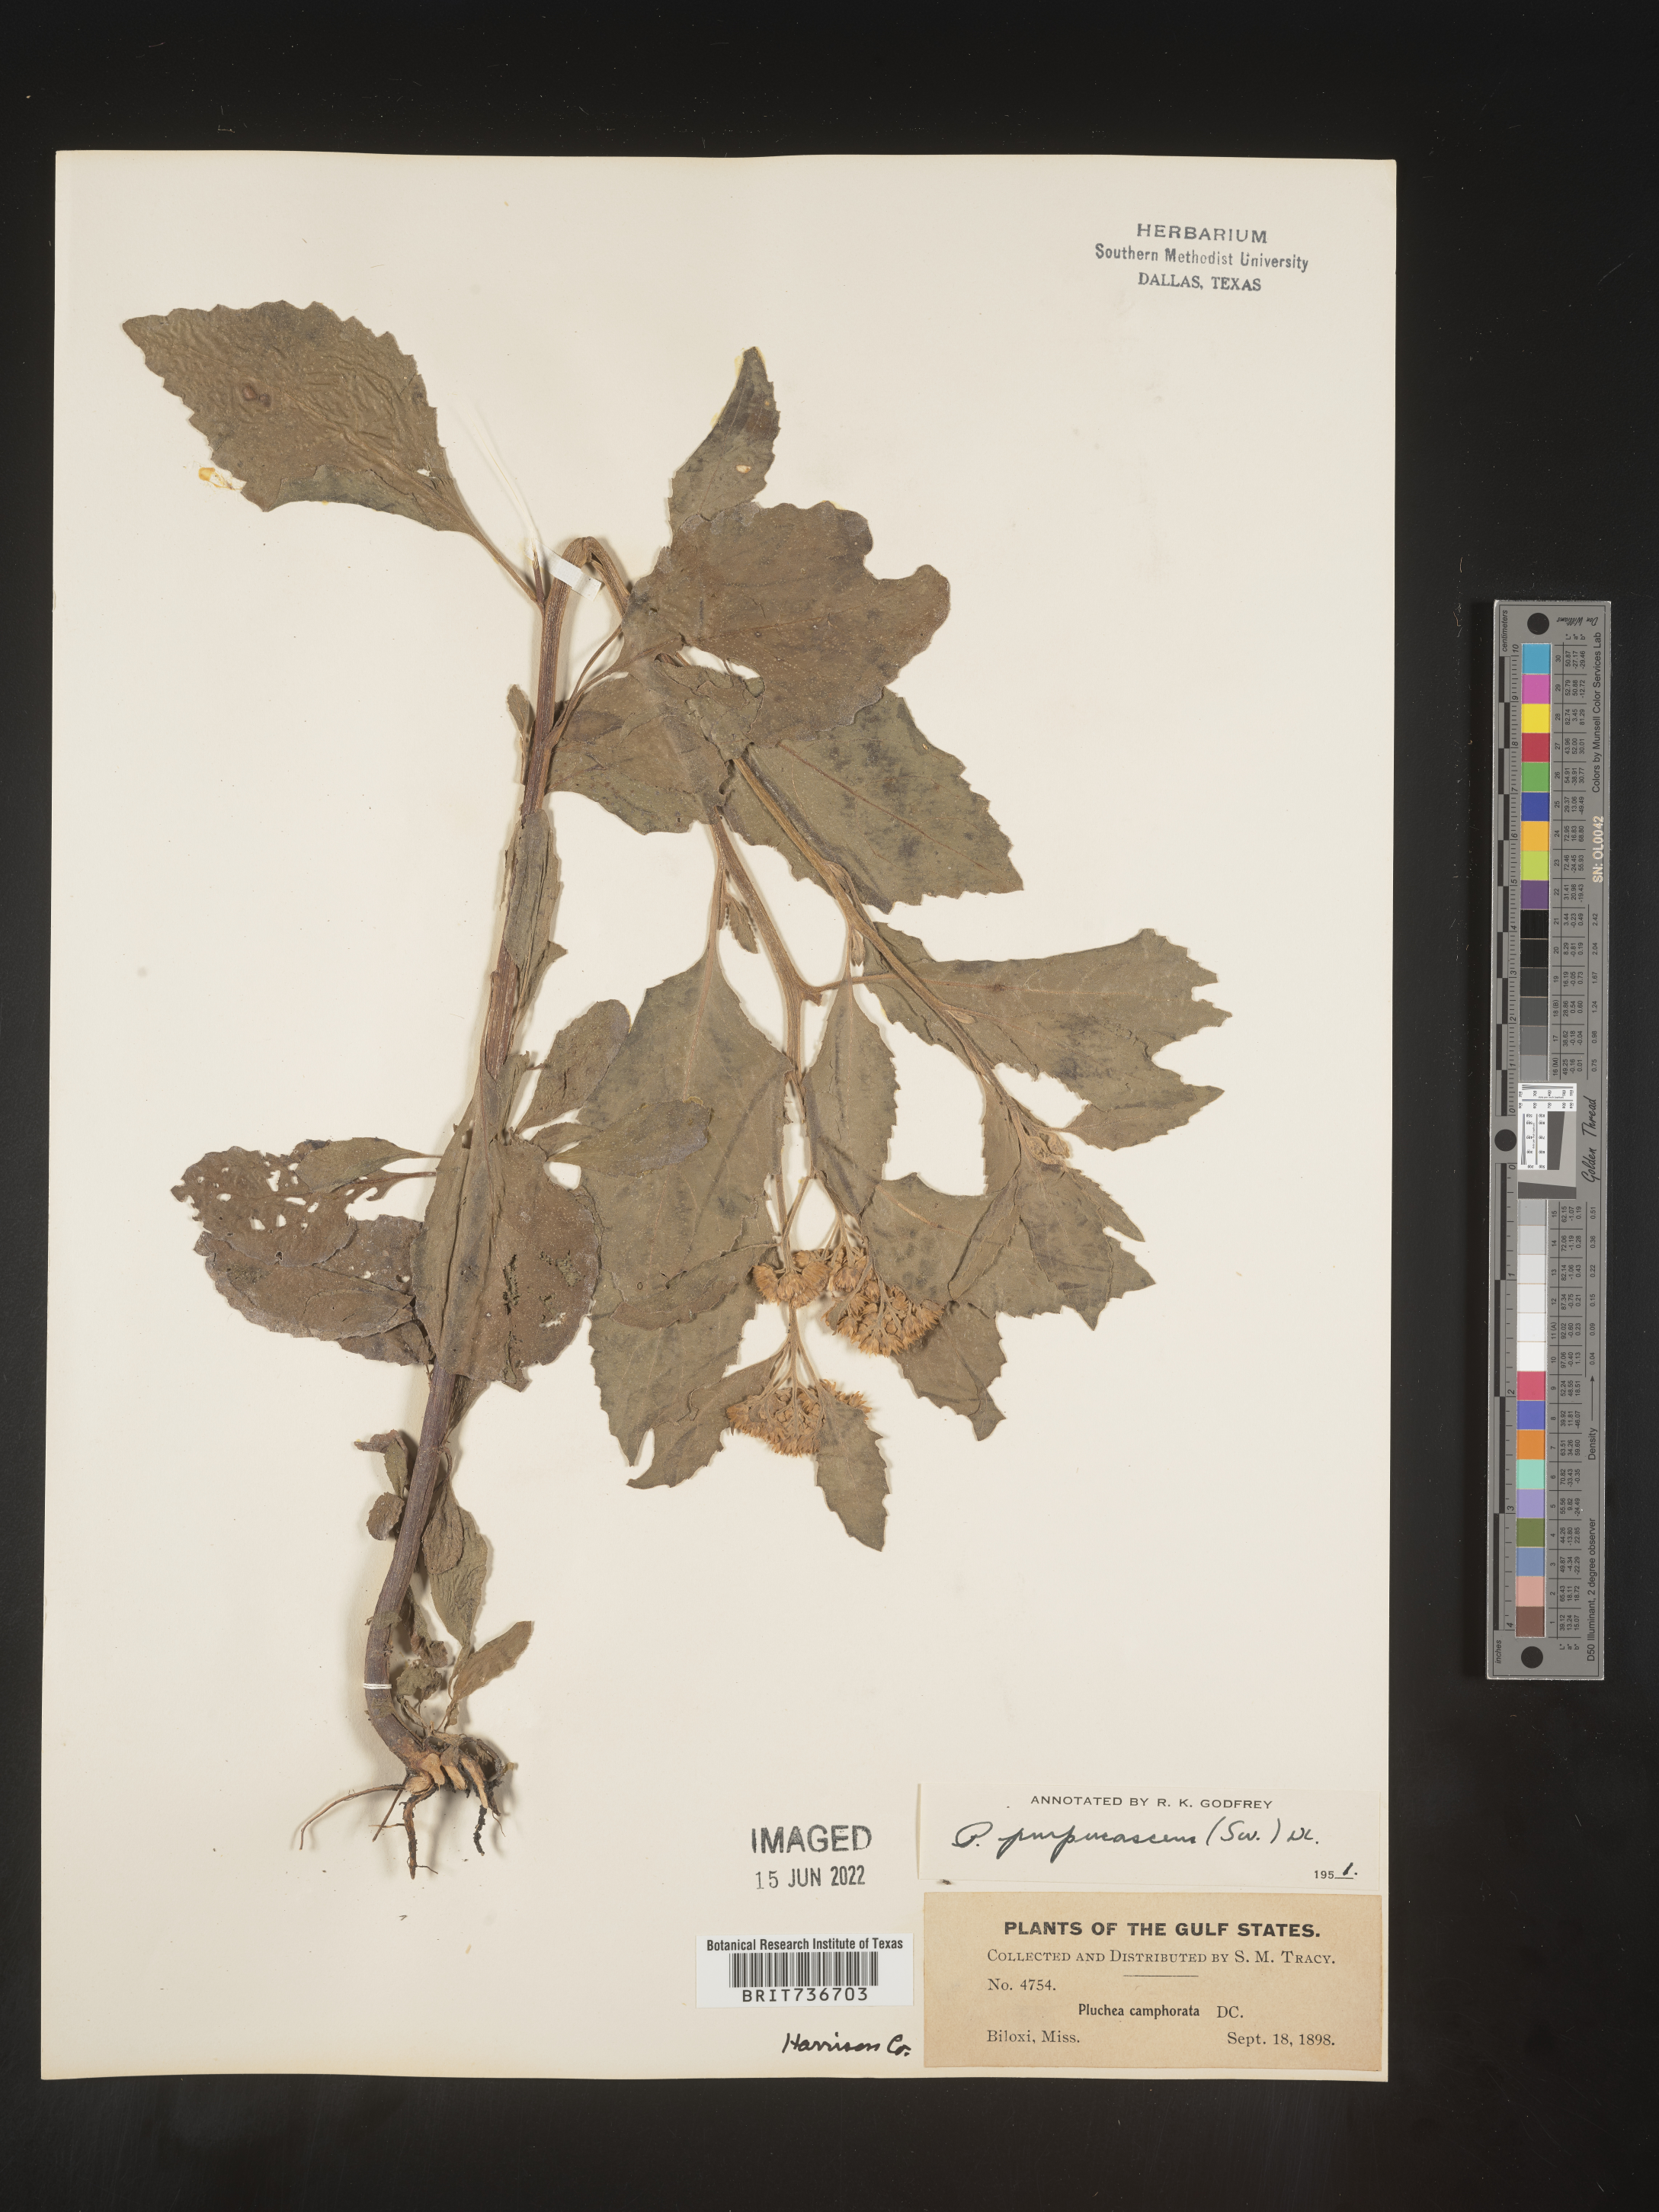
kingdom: Plantae
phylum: Tracheophyta
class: Magnoliopsida
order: Asterales
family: Asteraceae
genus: Pluchea
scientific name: Pluchea odorata
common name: Saltmarsh fleabane
